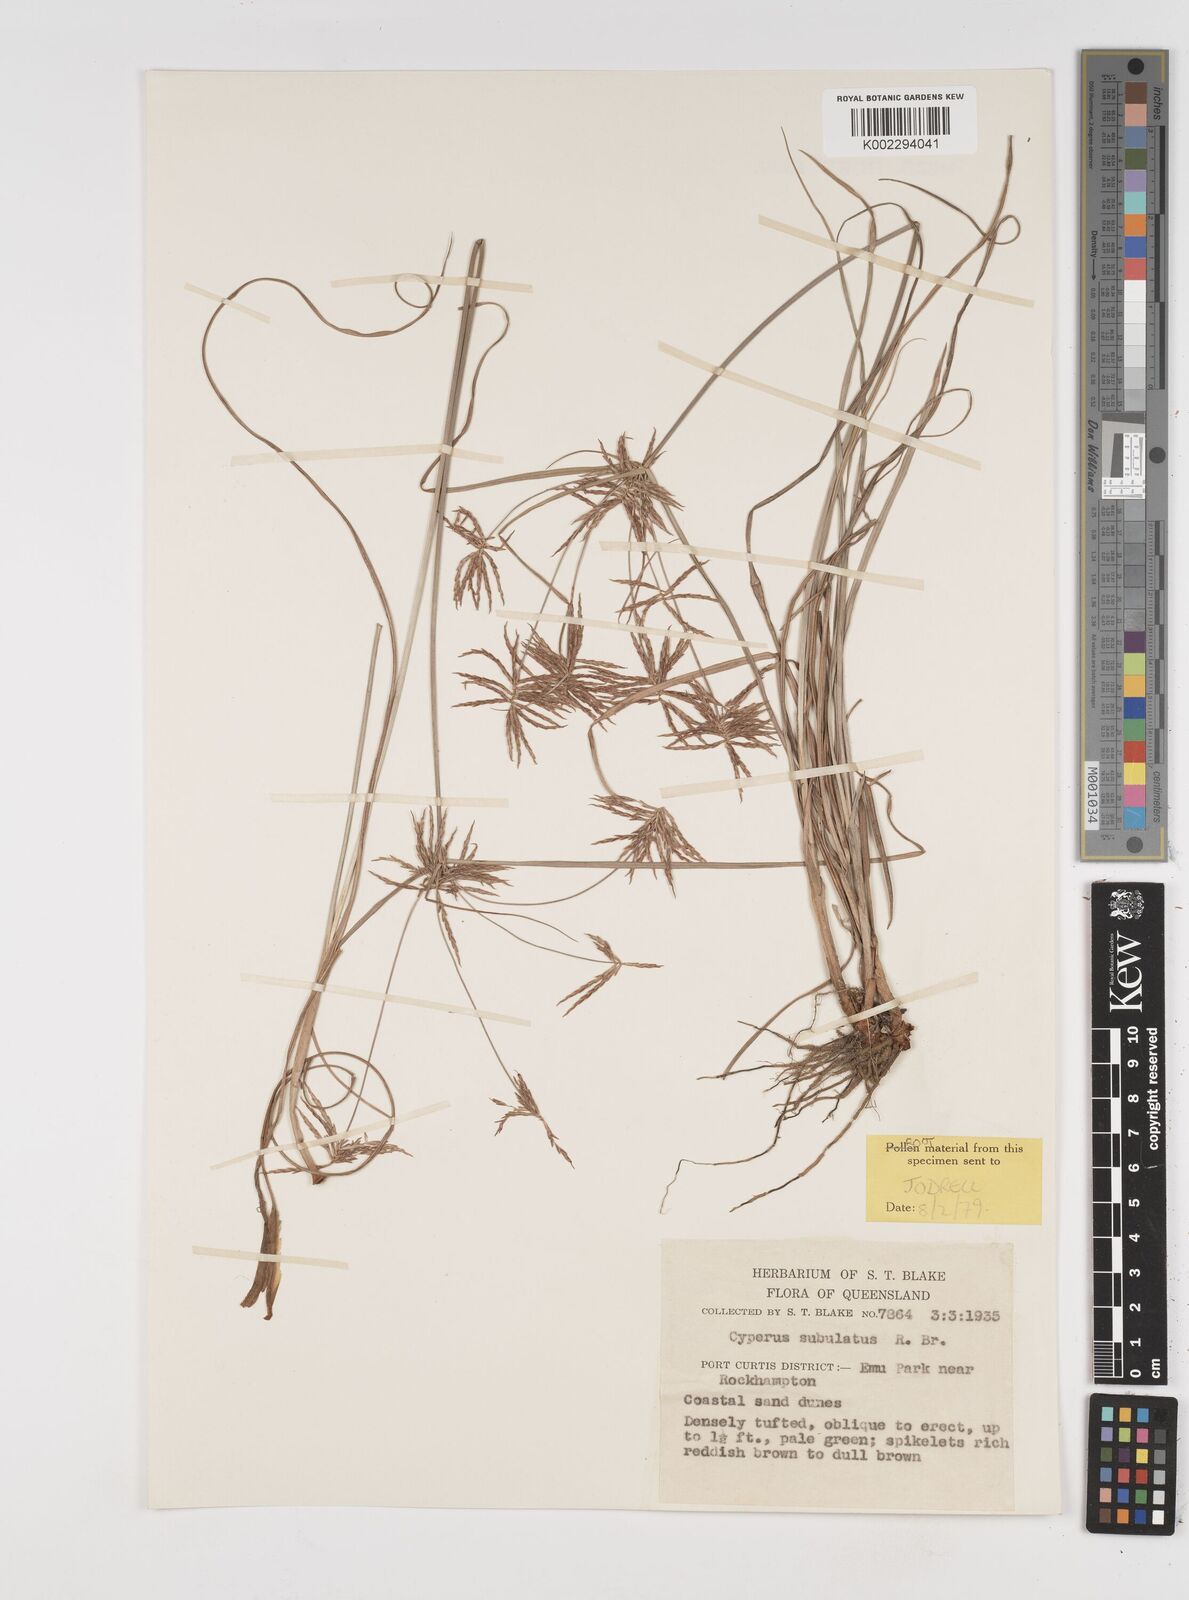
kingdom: Plantae
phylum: Tracheophyta
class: Liliopsida
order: Poales
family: Cyperaceae
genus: Cyperus
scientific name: Cyperus subulatus
